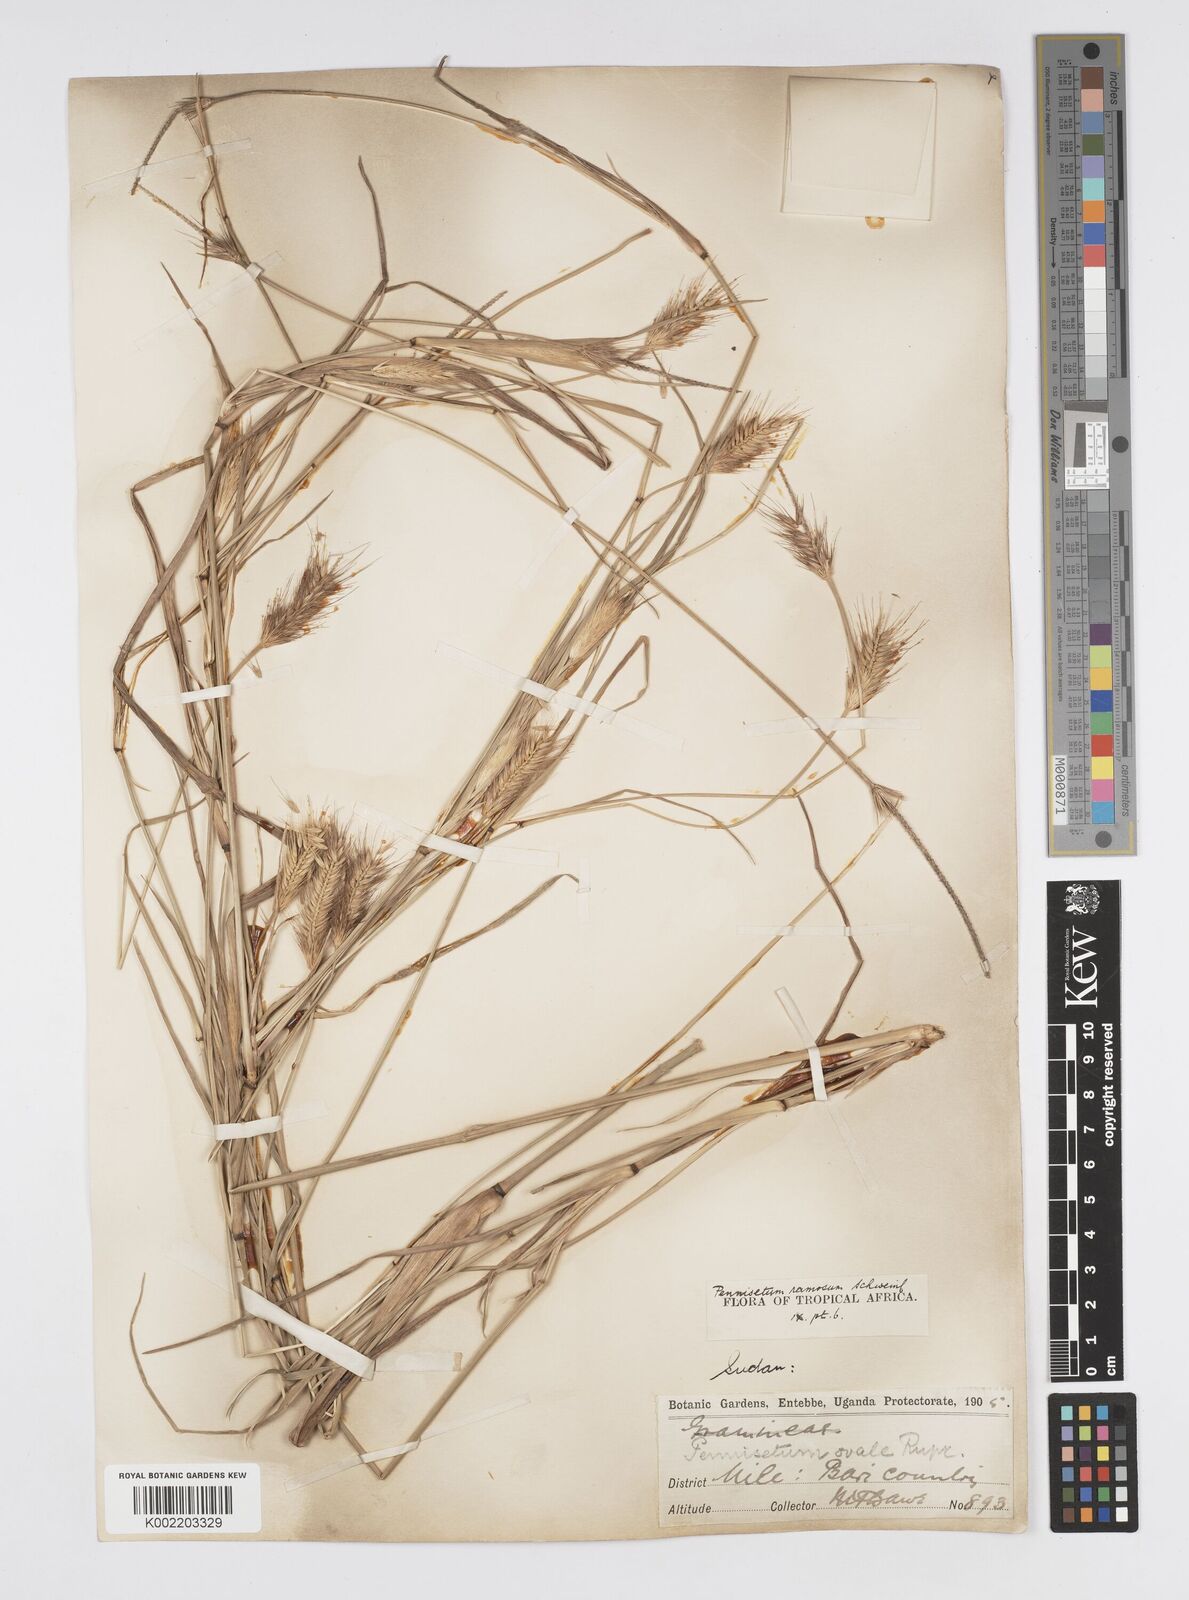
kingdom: Plantae
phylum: Tracheophyta
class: Liliopsida
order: Poales
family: Poaceae
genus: Cenchrus
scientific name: Cenchrus ramosus
